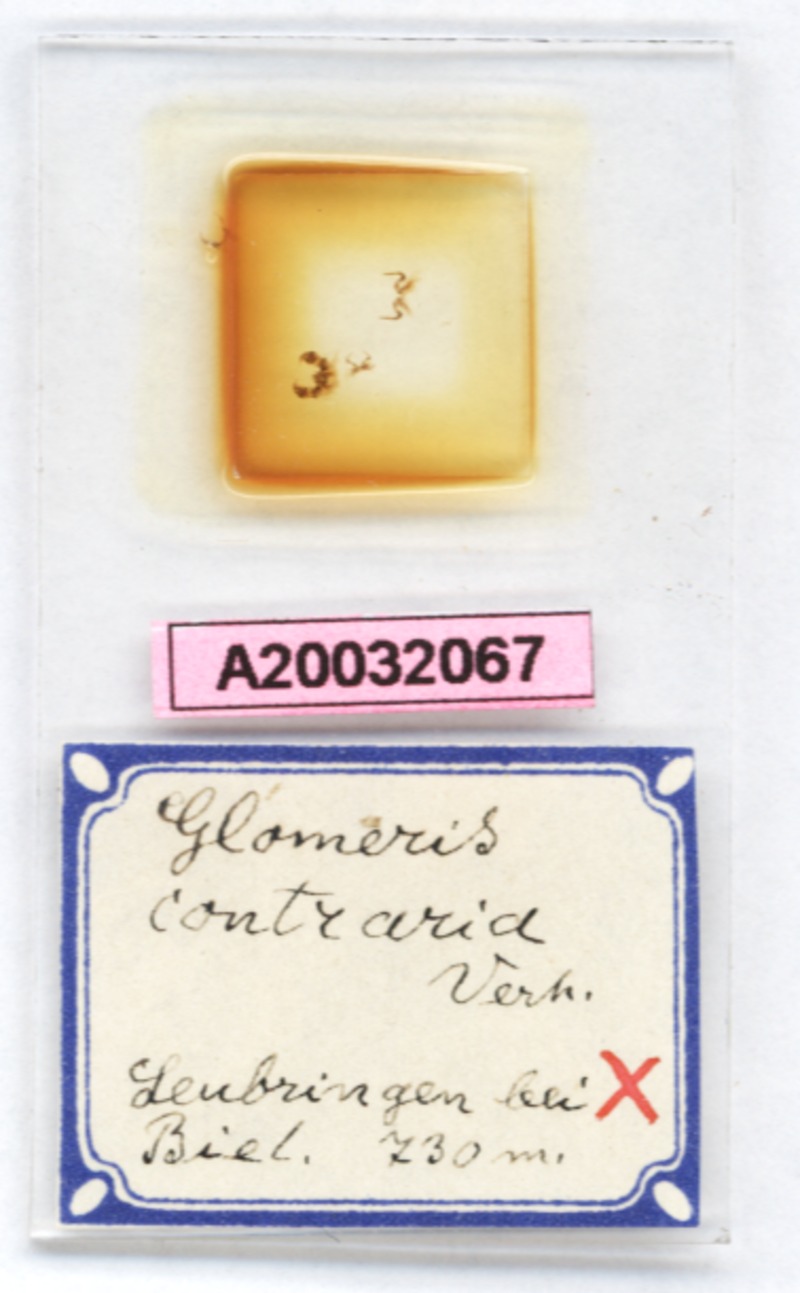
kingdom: Animalia
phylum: Arthropoda
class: Diplopoda
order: Glomerida
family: Glomeridae
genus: Glomeris
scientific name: Glomeris contraria
